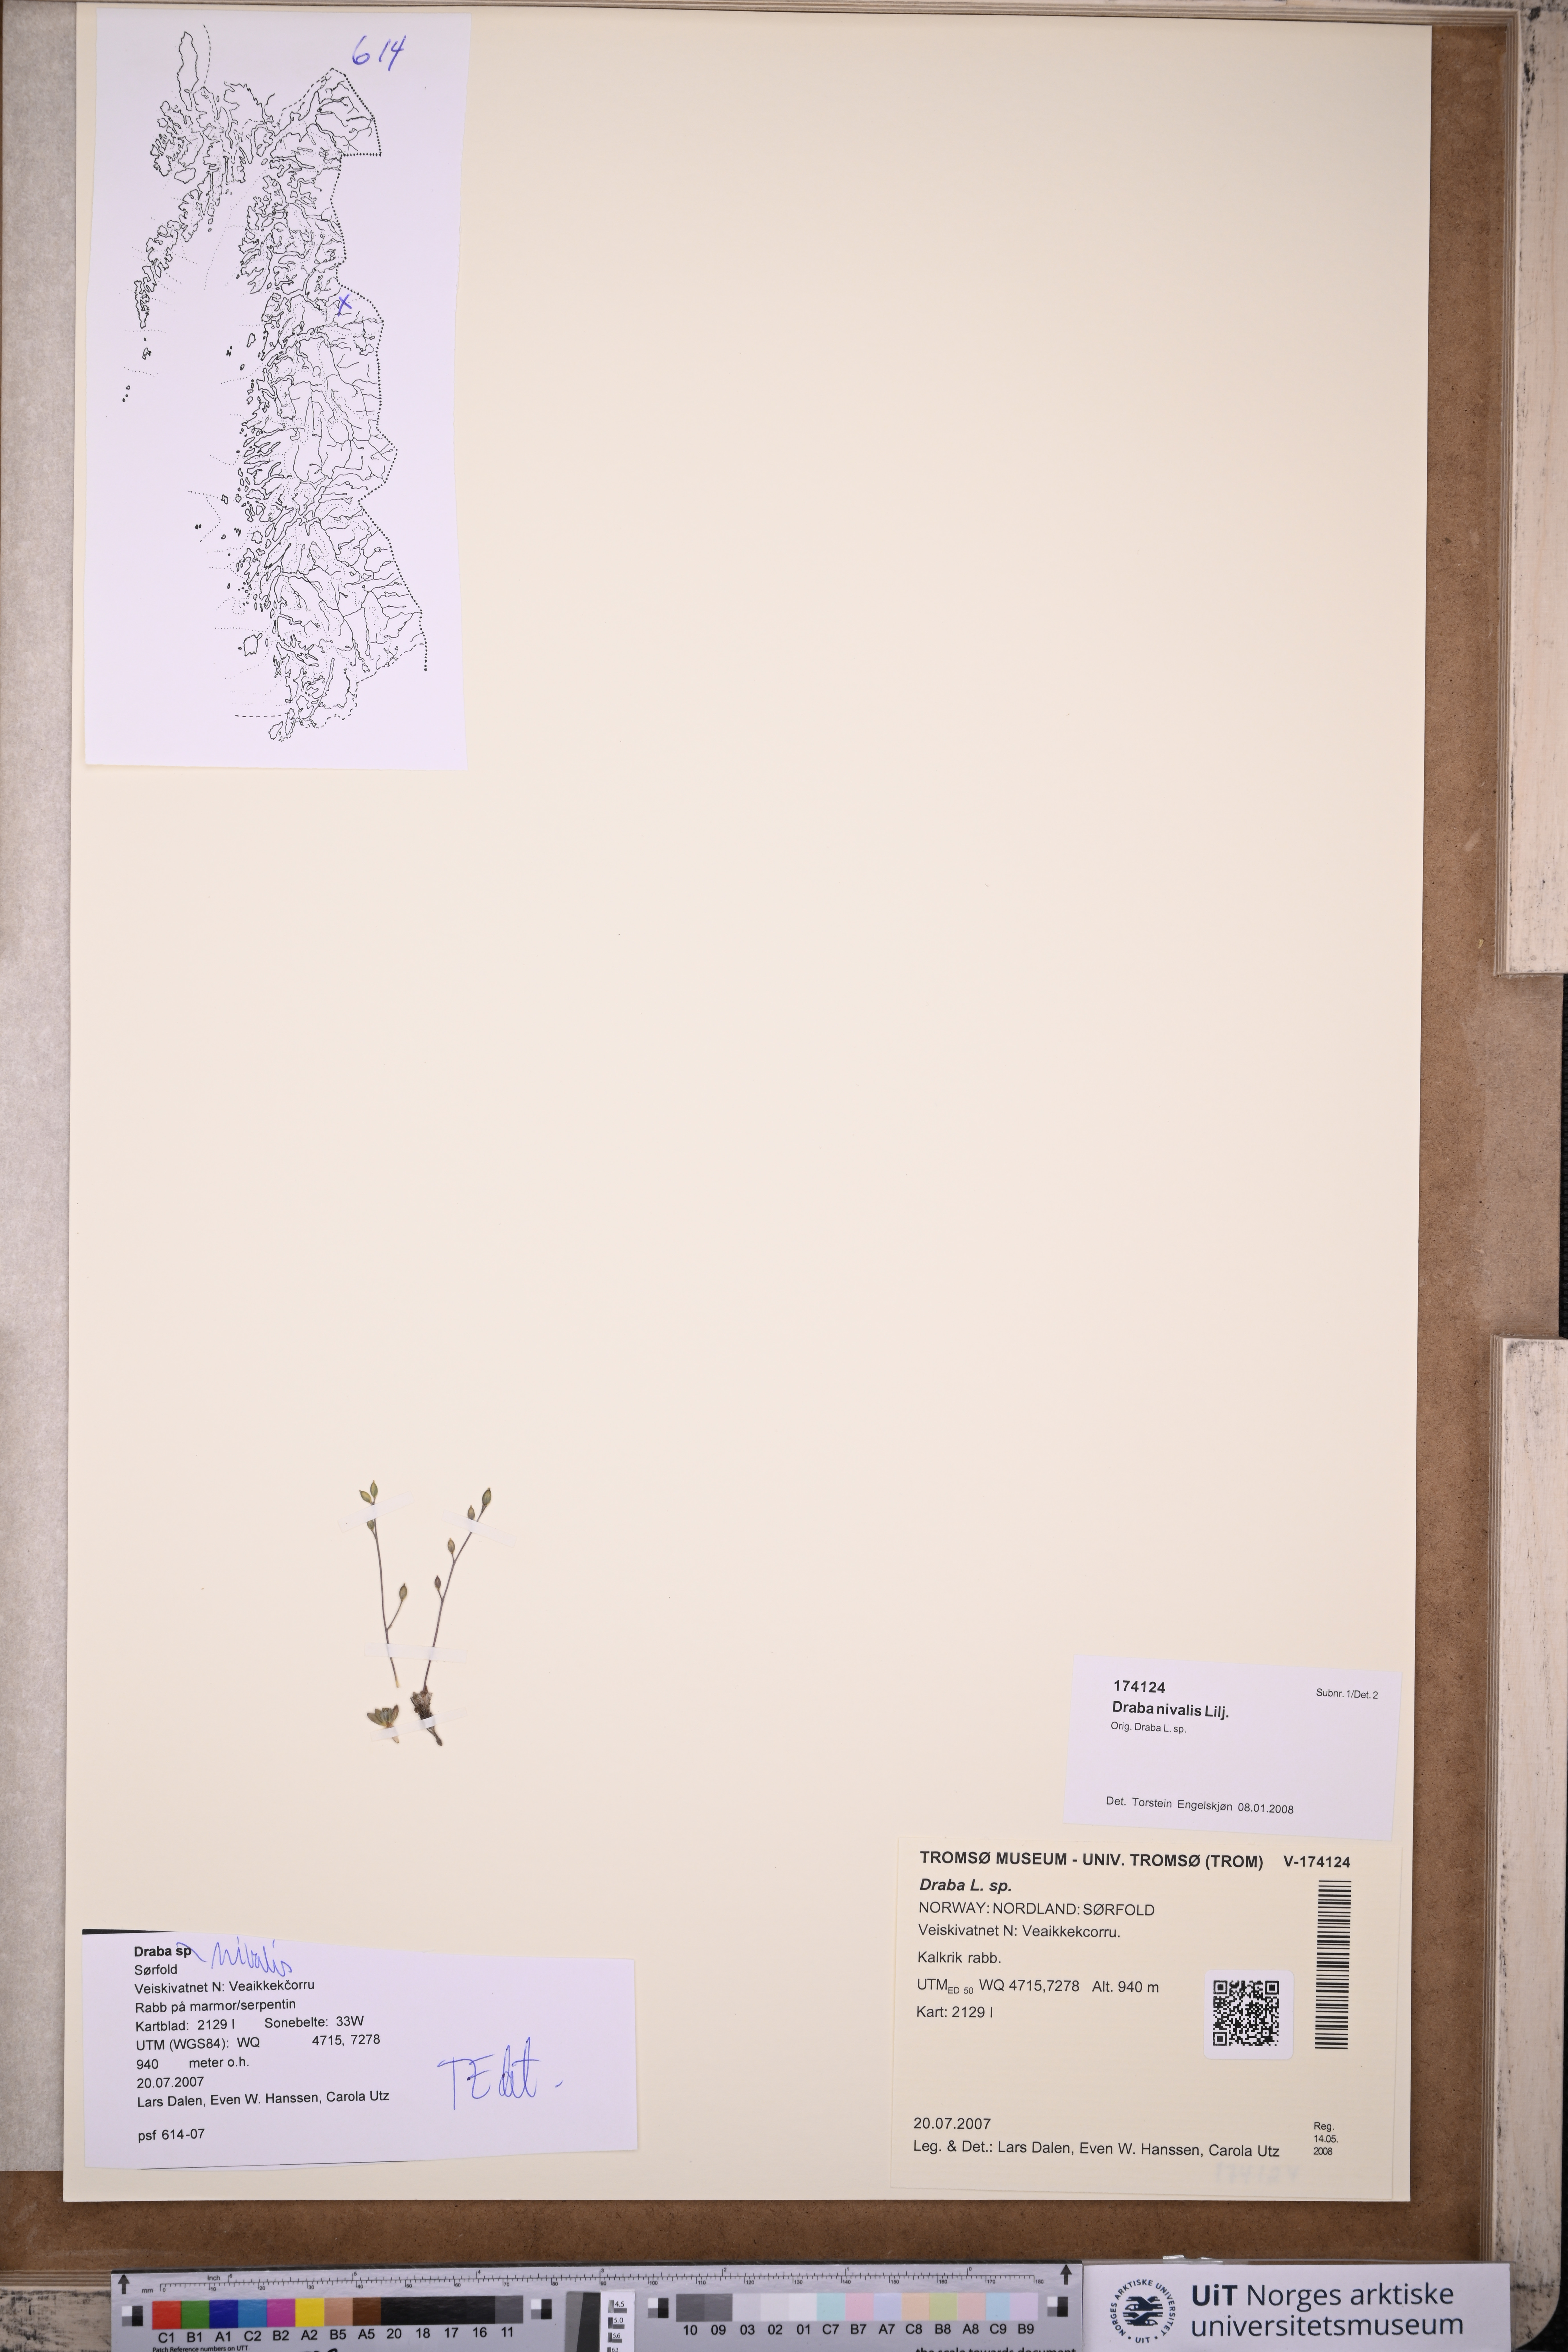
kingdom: Plantae
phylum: Tracheophyta
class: Magnoliopsida
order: Brassicales
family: Brassicaceae
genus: Draba
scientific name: Draba nivalis
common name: Snow draba
